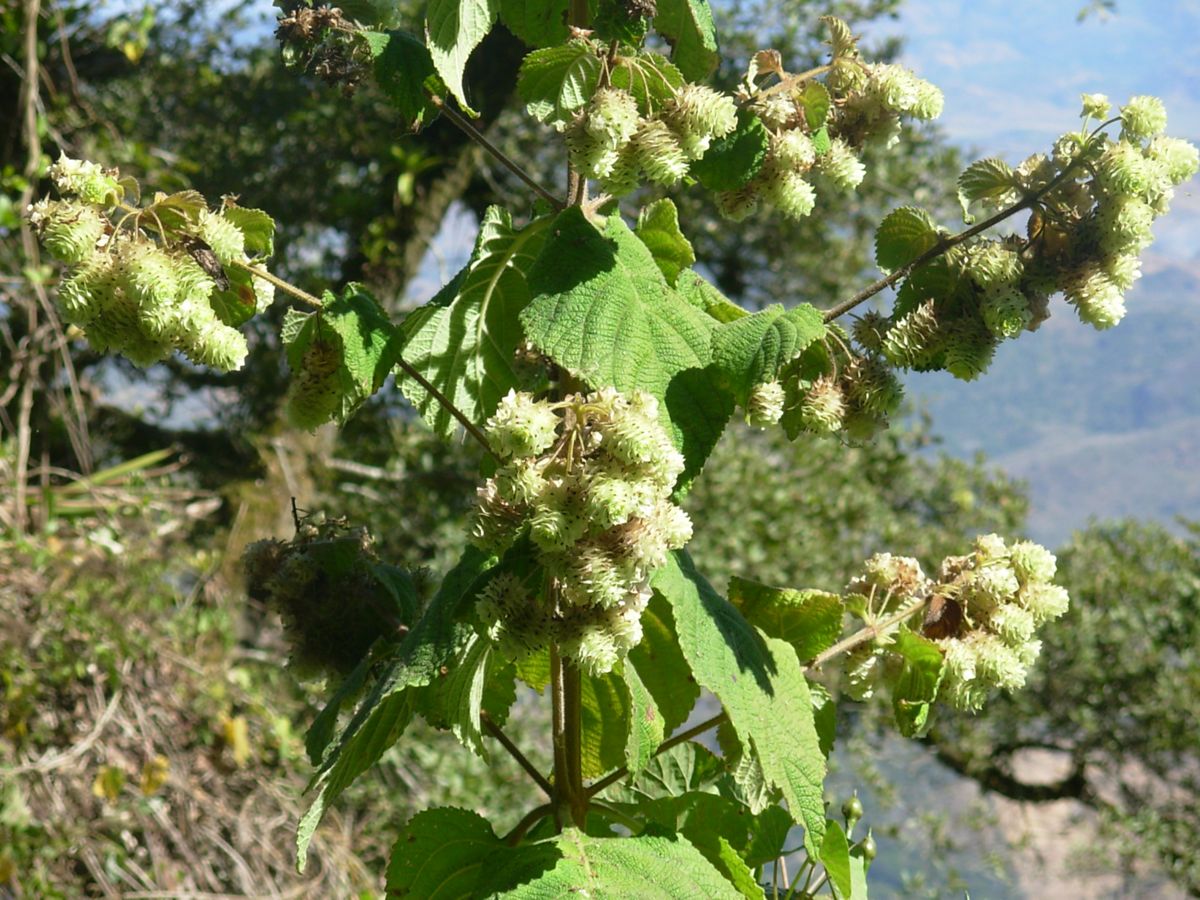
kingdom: Plantae
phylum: Tracheophyta
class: Magnoliopsida
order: Lamiales
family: Verbenaceae
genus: Lippia
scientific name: Lippia chiapasensis
